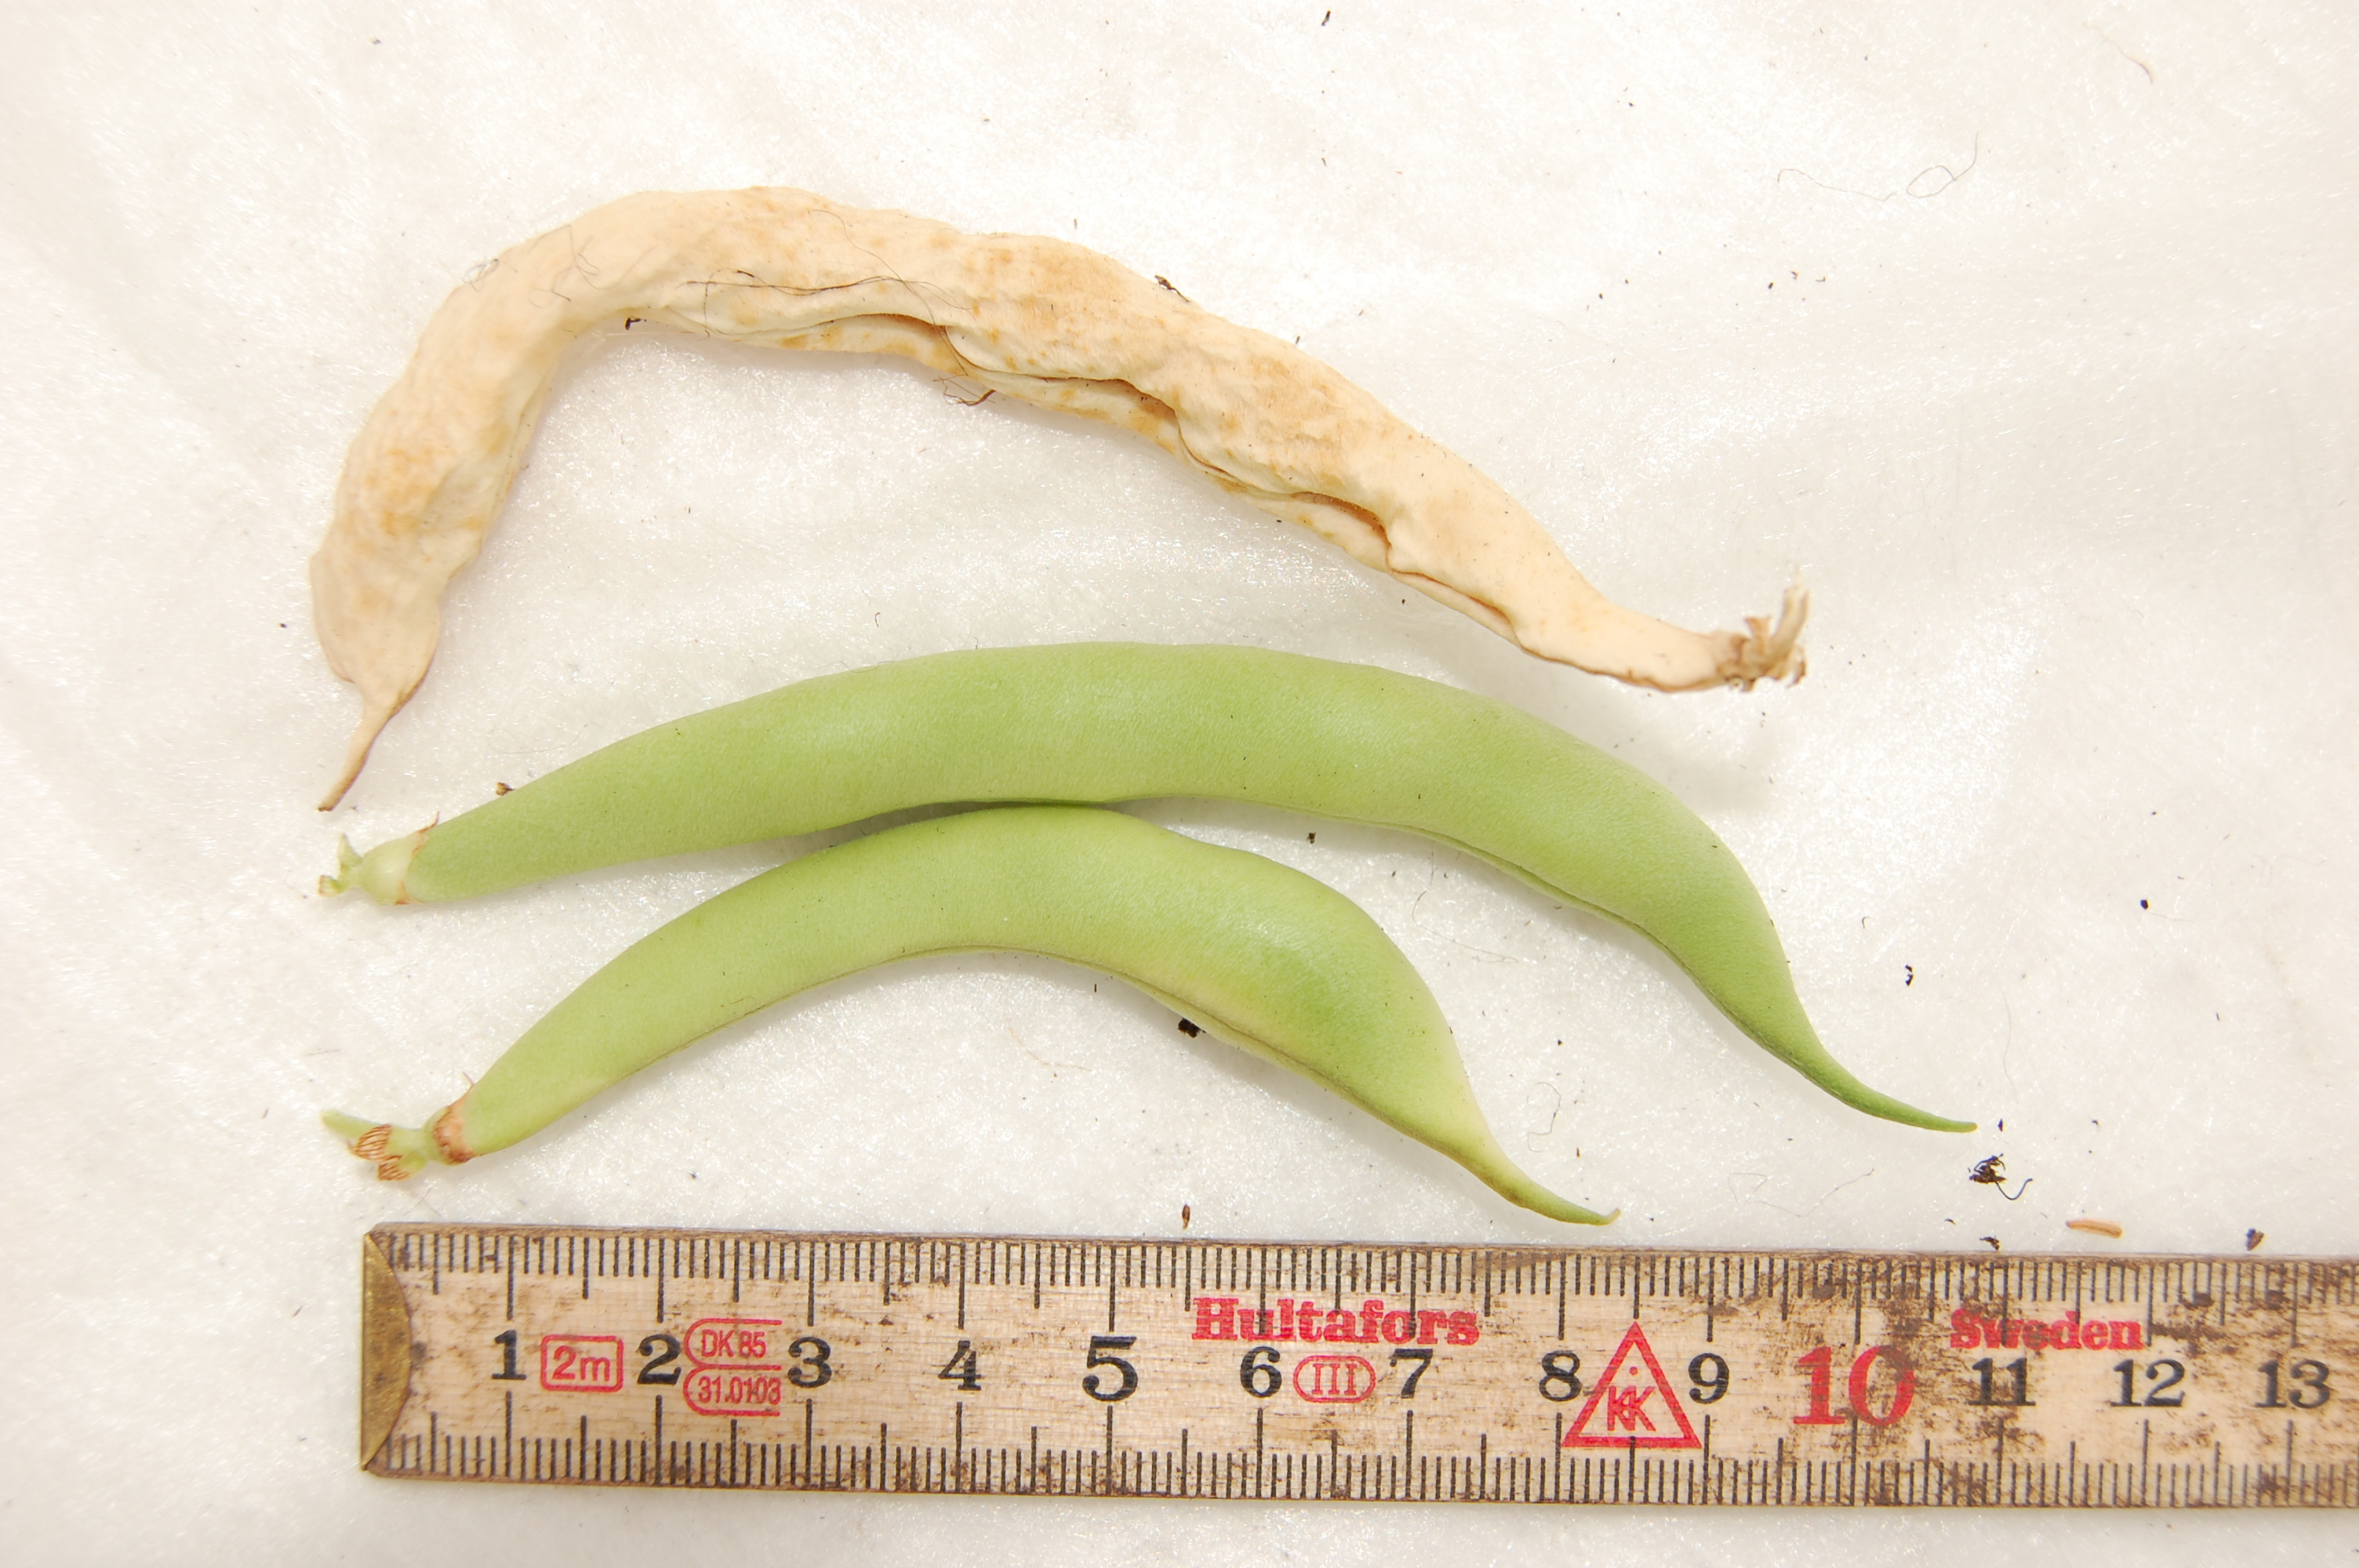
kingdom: Plantae
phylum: Tracheophyta
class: Magnoliopsida
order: Fabales
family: Fabaceae
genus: Phaseolus
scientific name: Phaseolus vulgaris
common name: Bean
